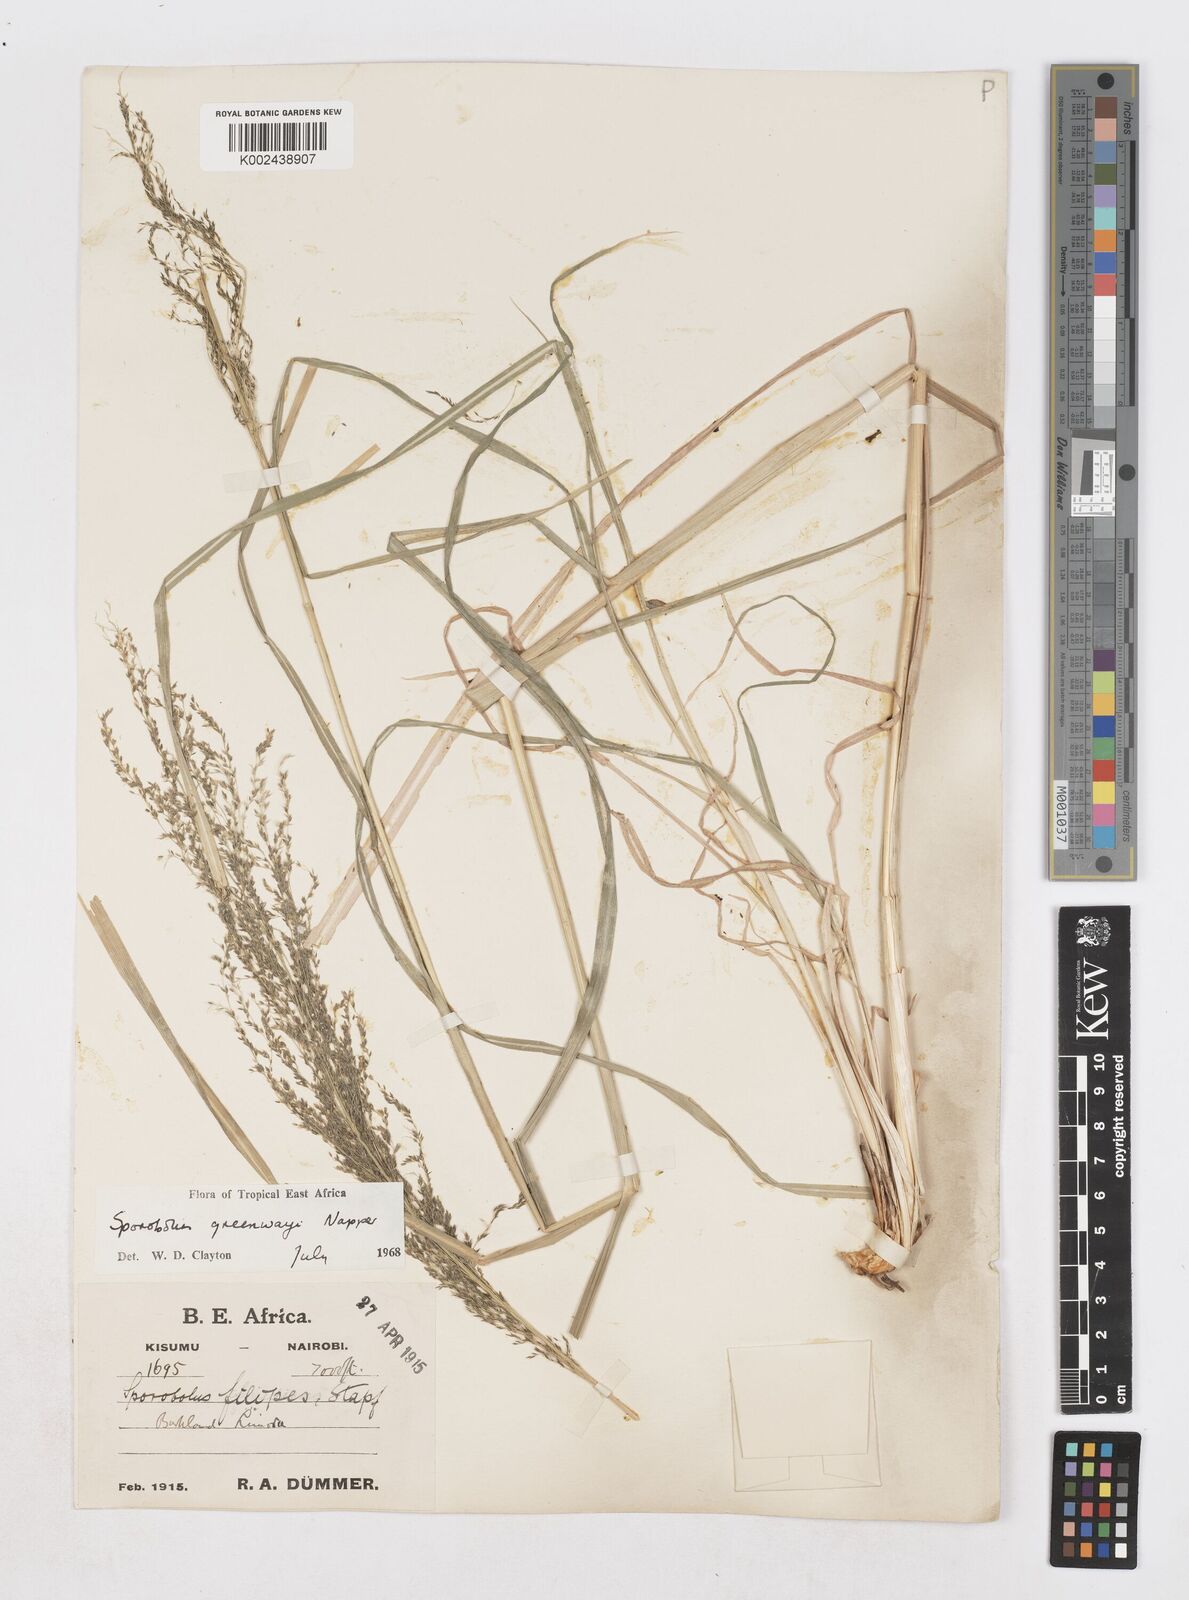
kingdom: Plantae
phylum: Tracheophyta
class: Liliopsida
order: Poales
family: Poaceae
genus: Sporobolus
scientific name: Sporobolus macranthelus
